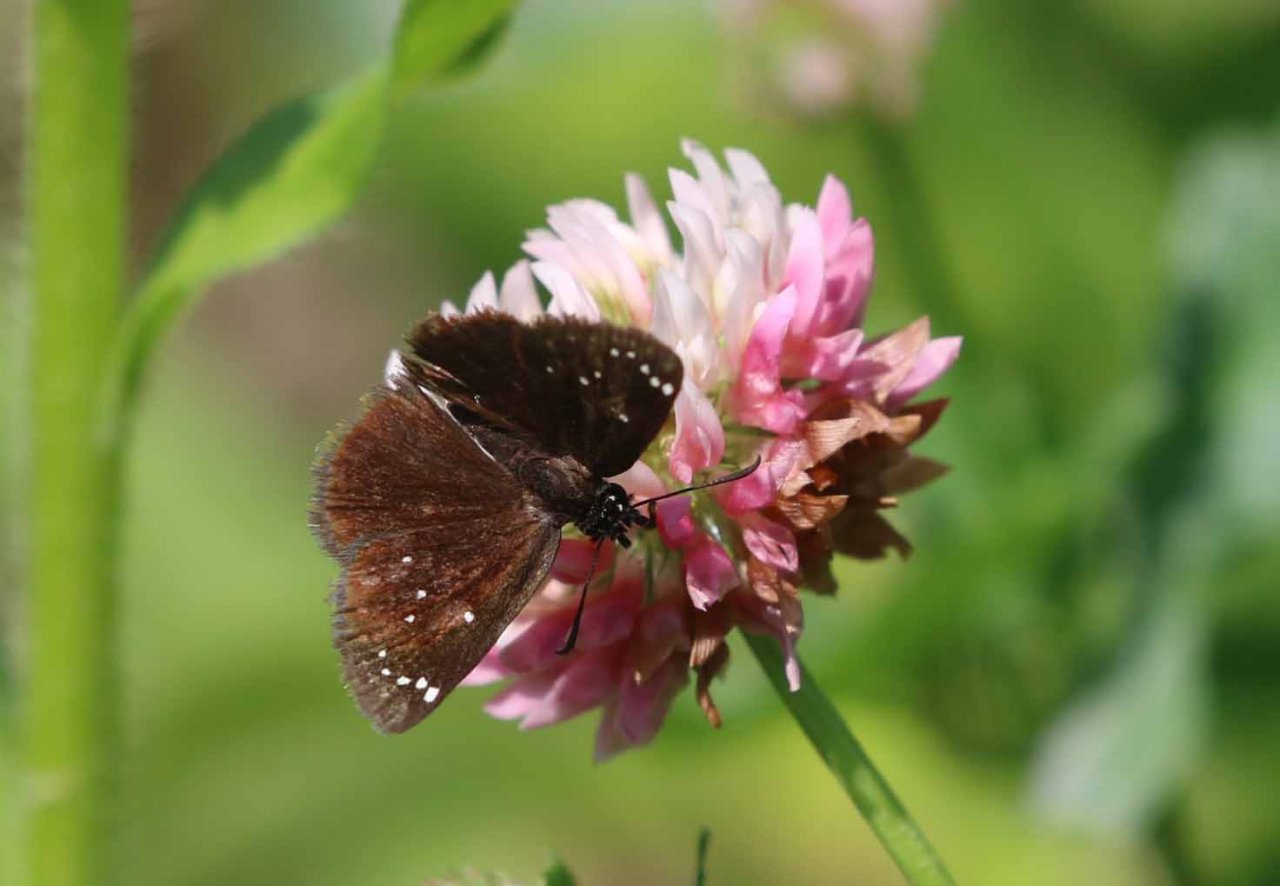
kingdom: Animalia
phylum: Arthropoda
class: Insecta
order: Lepidoptera
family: Hesperiidae
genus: Pholisora
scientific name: Pholisora catullus
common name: Common Sootywing
